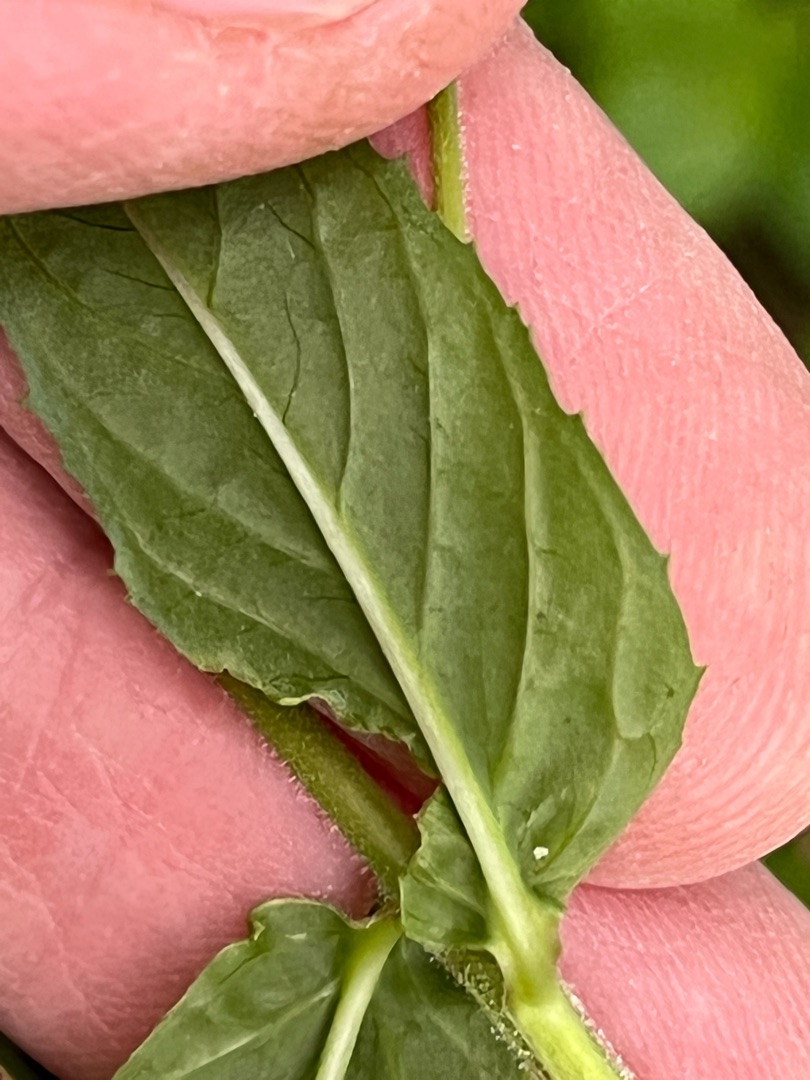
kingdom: Plantae
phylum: Tracheophyta
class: Magnoliopsida
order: Myrtales
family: Onagraceae
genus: Epilobium
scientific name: Epilobium ciliatum
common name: Hvid dueurt
